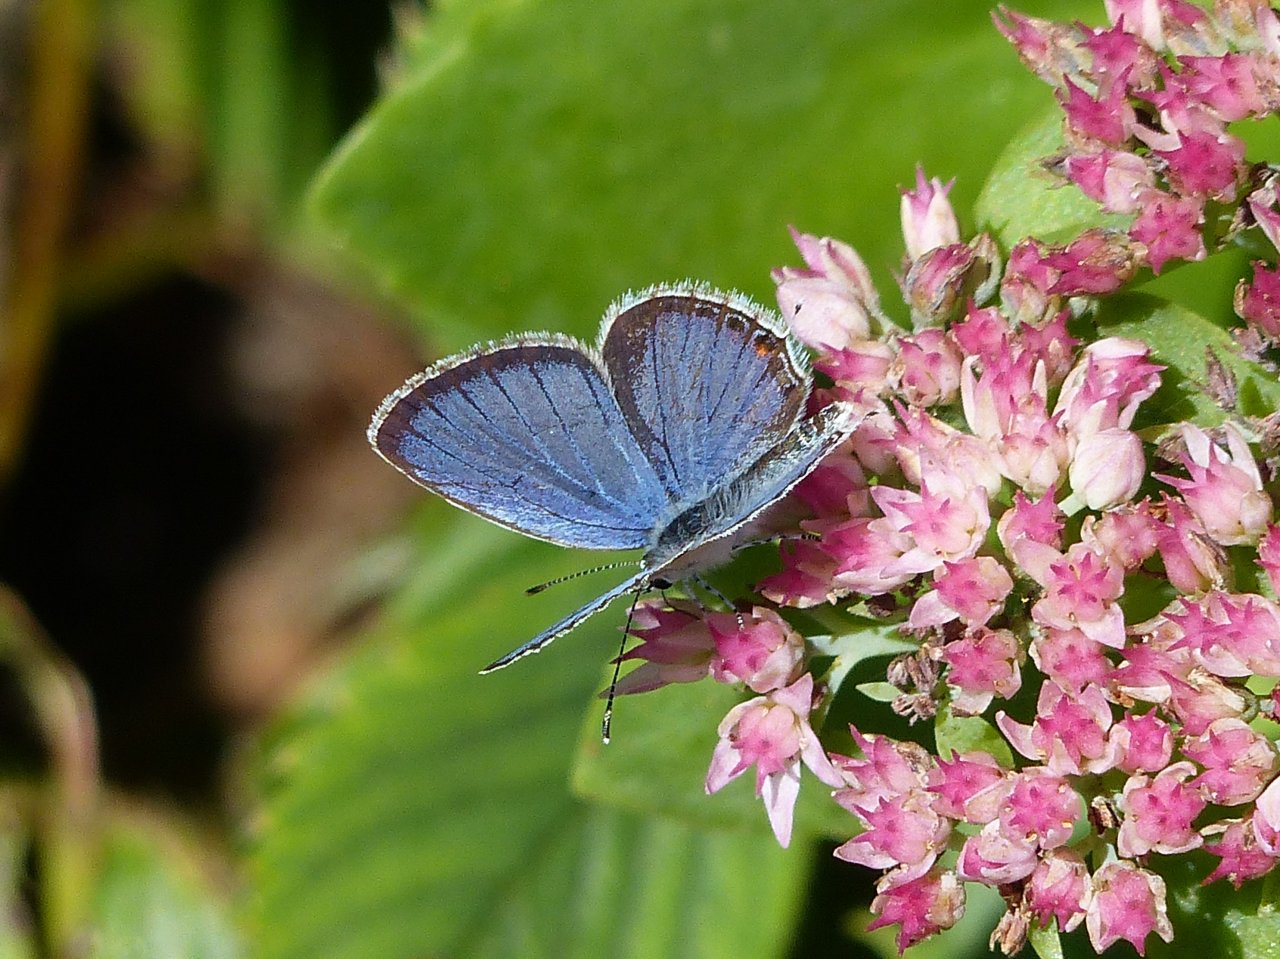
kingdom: Animalia
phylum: Arthropoda
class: Insecta
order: Lepidoptera
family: Lycaenidae
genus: Elkalyce
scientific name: Elkalyce comyntas
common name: Eastern Tailed-Blue
